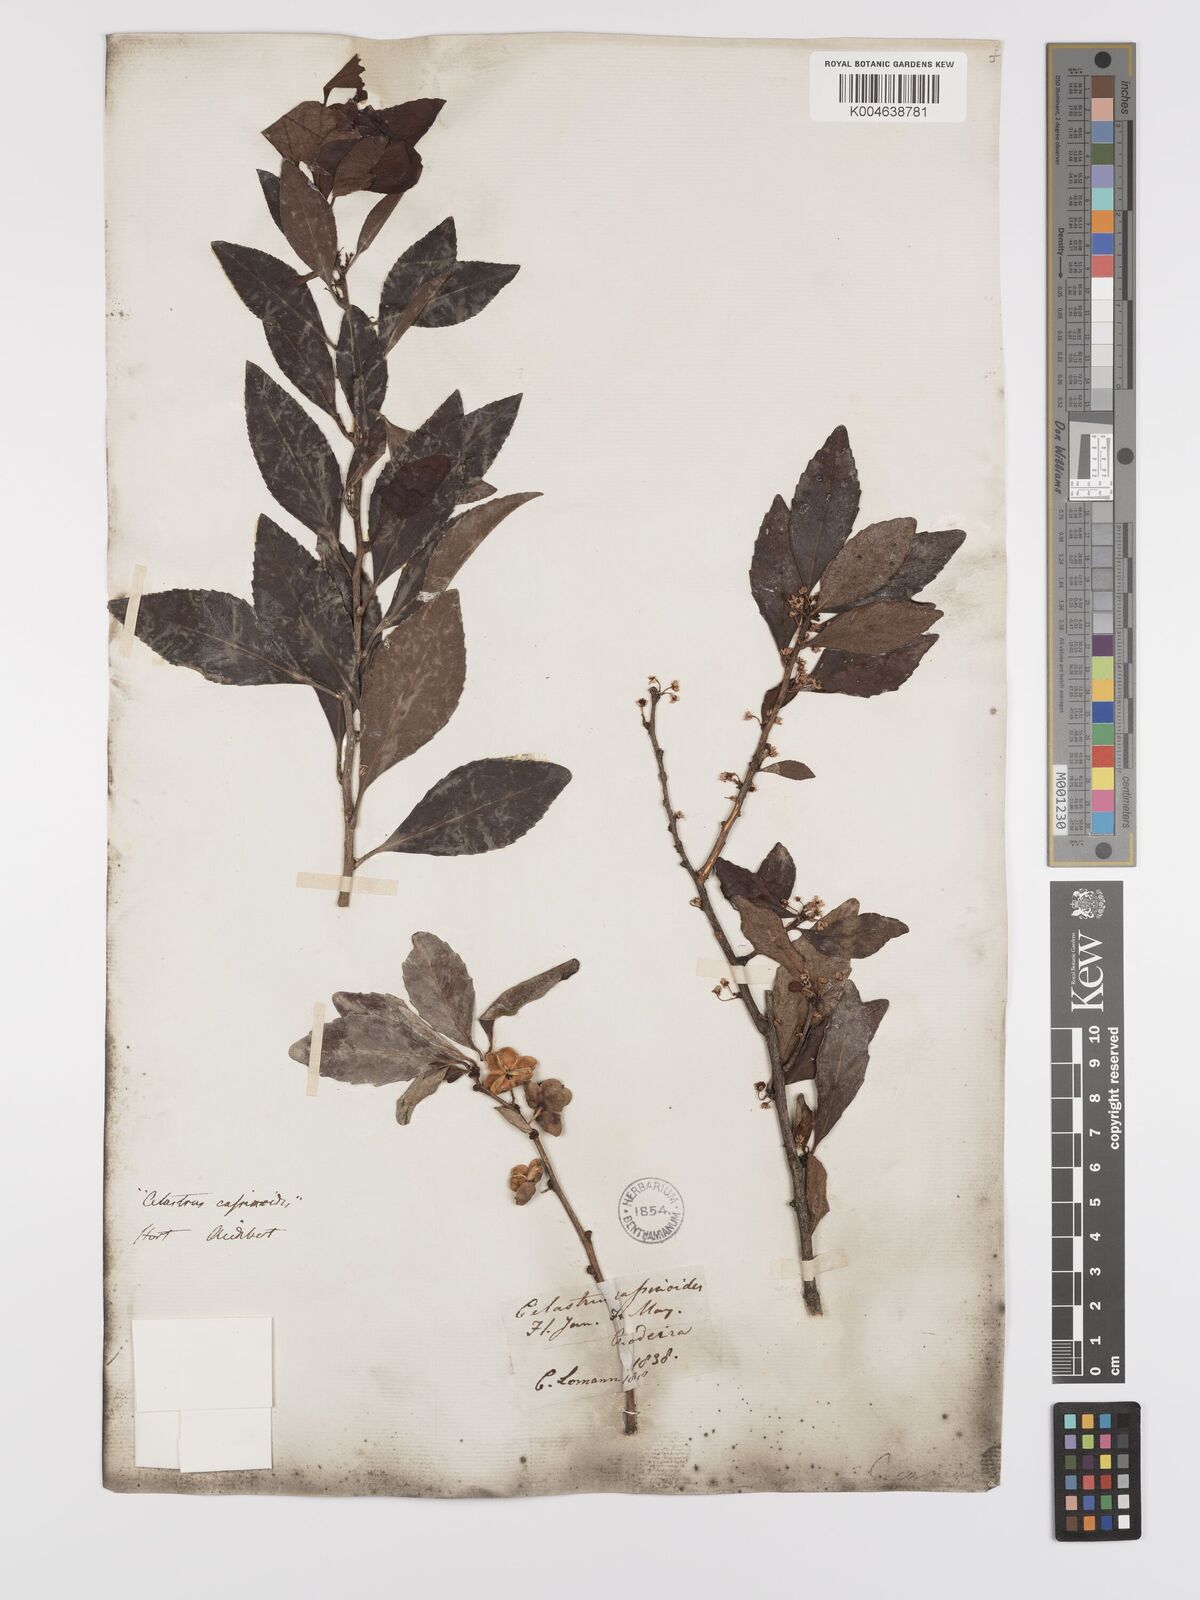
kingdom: Plantae
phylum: Tracheophyta
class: Magnoliopsida
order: Celastrales
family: Celastraceae
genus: Gymnosporia
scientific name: Gymnosporia cassinoides
